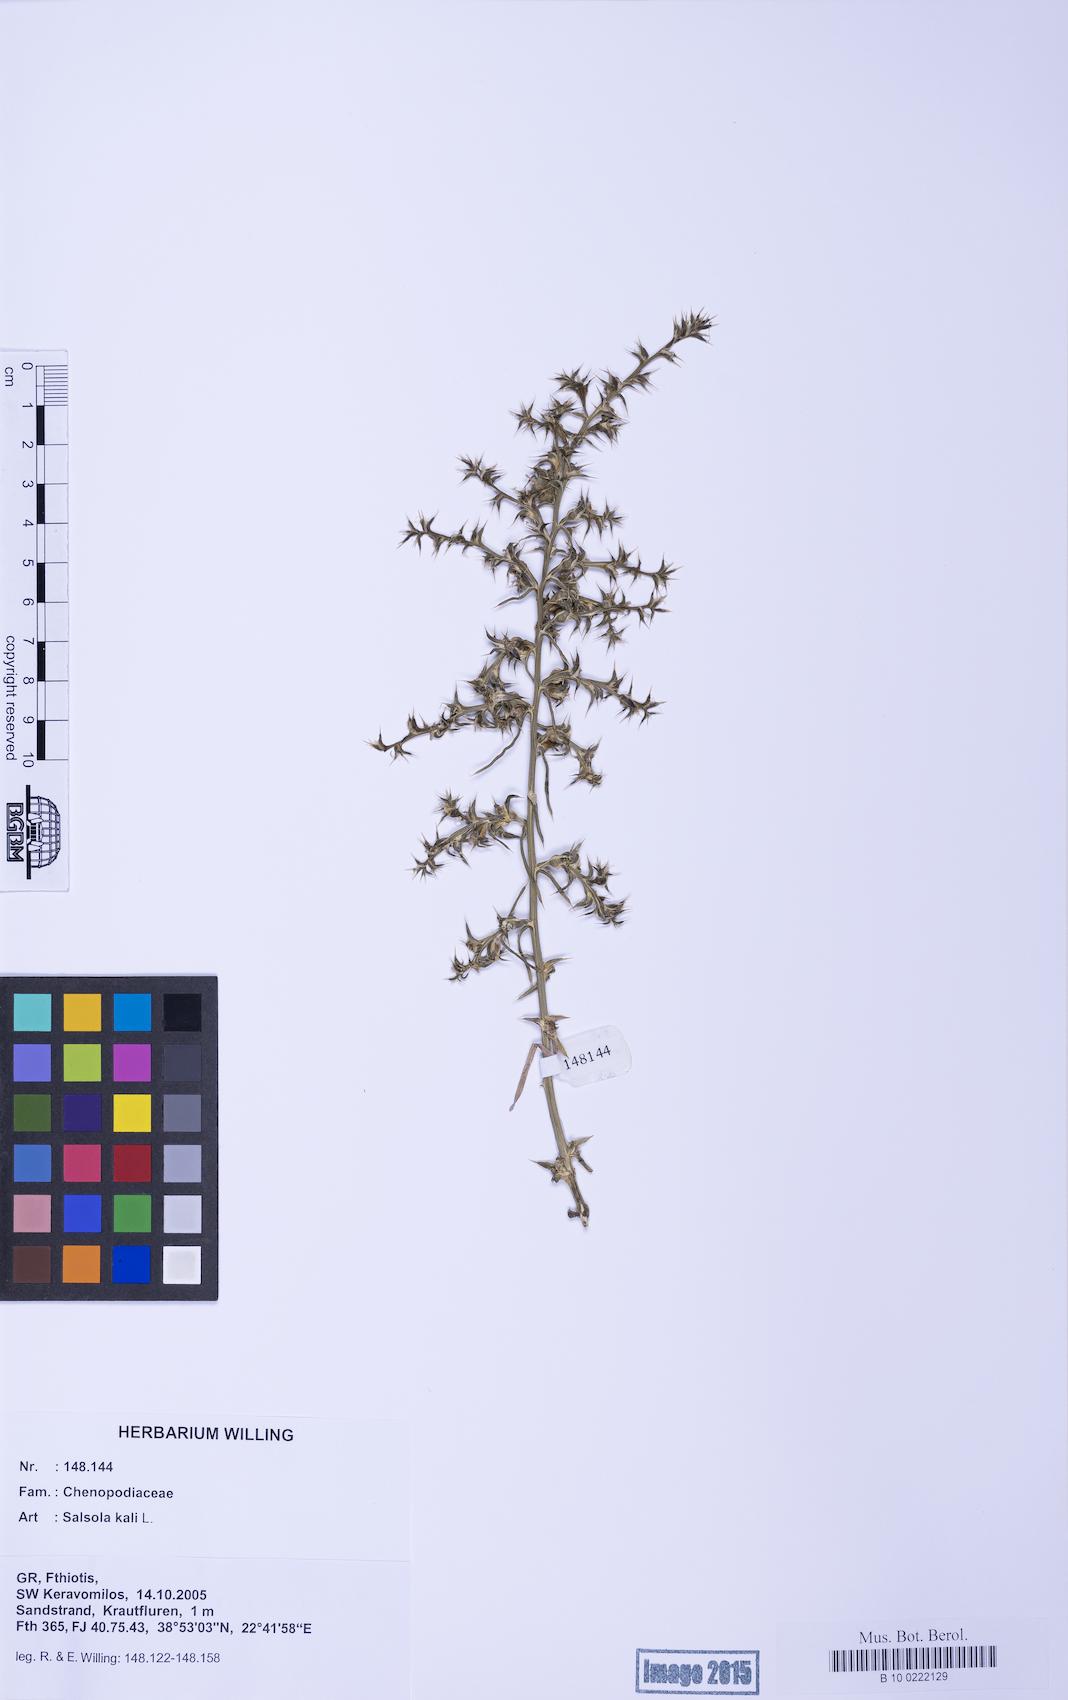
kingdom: Plantae
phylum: Tracheophyta
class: Magnoliopsida
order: Caryophyllales
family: Amaranthaceae
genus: Salsola
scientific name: Salsola kali
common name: Saltwort
